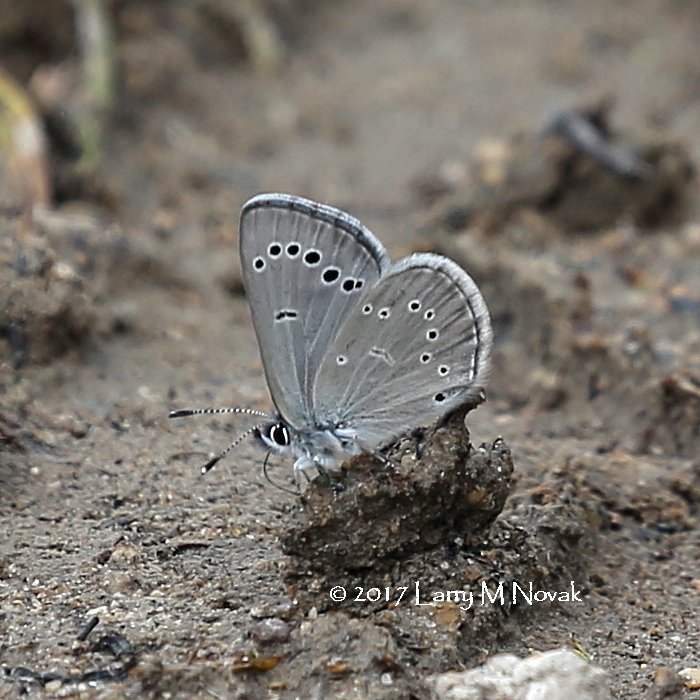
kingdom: Animalia
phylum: Arthropoda
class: Insecta
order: Lepidoptera
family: Lycaenidae
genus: Glaucopsyche
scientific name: Glaucopsyche lygdamus
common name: Silvery Blue
